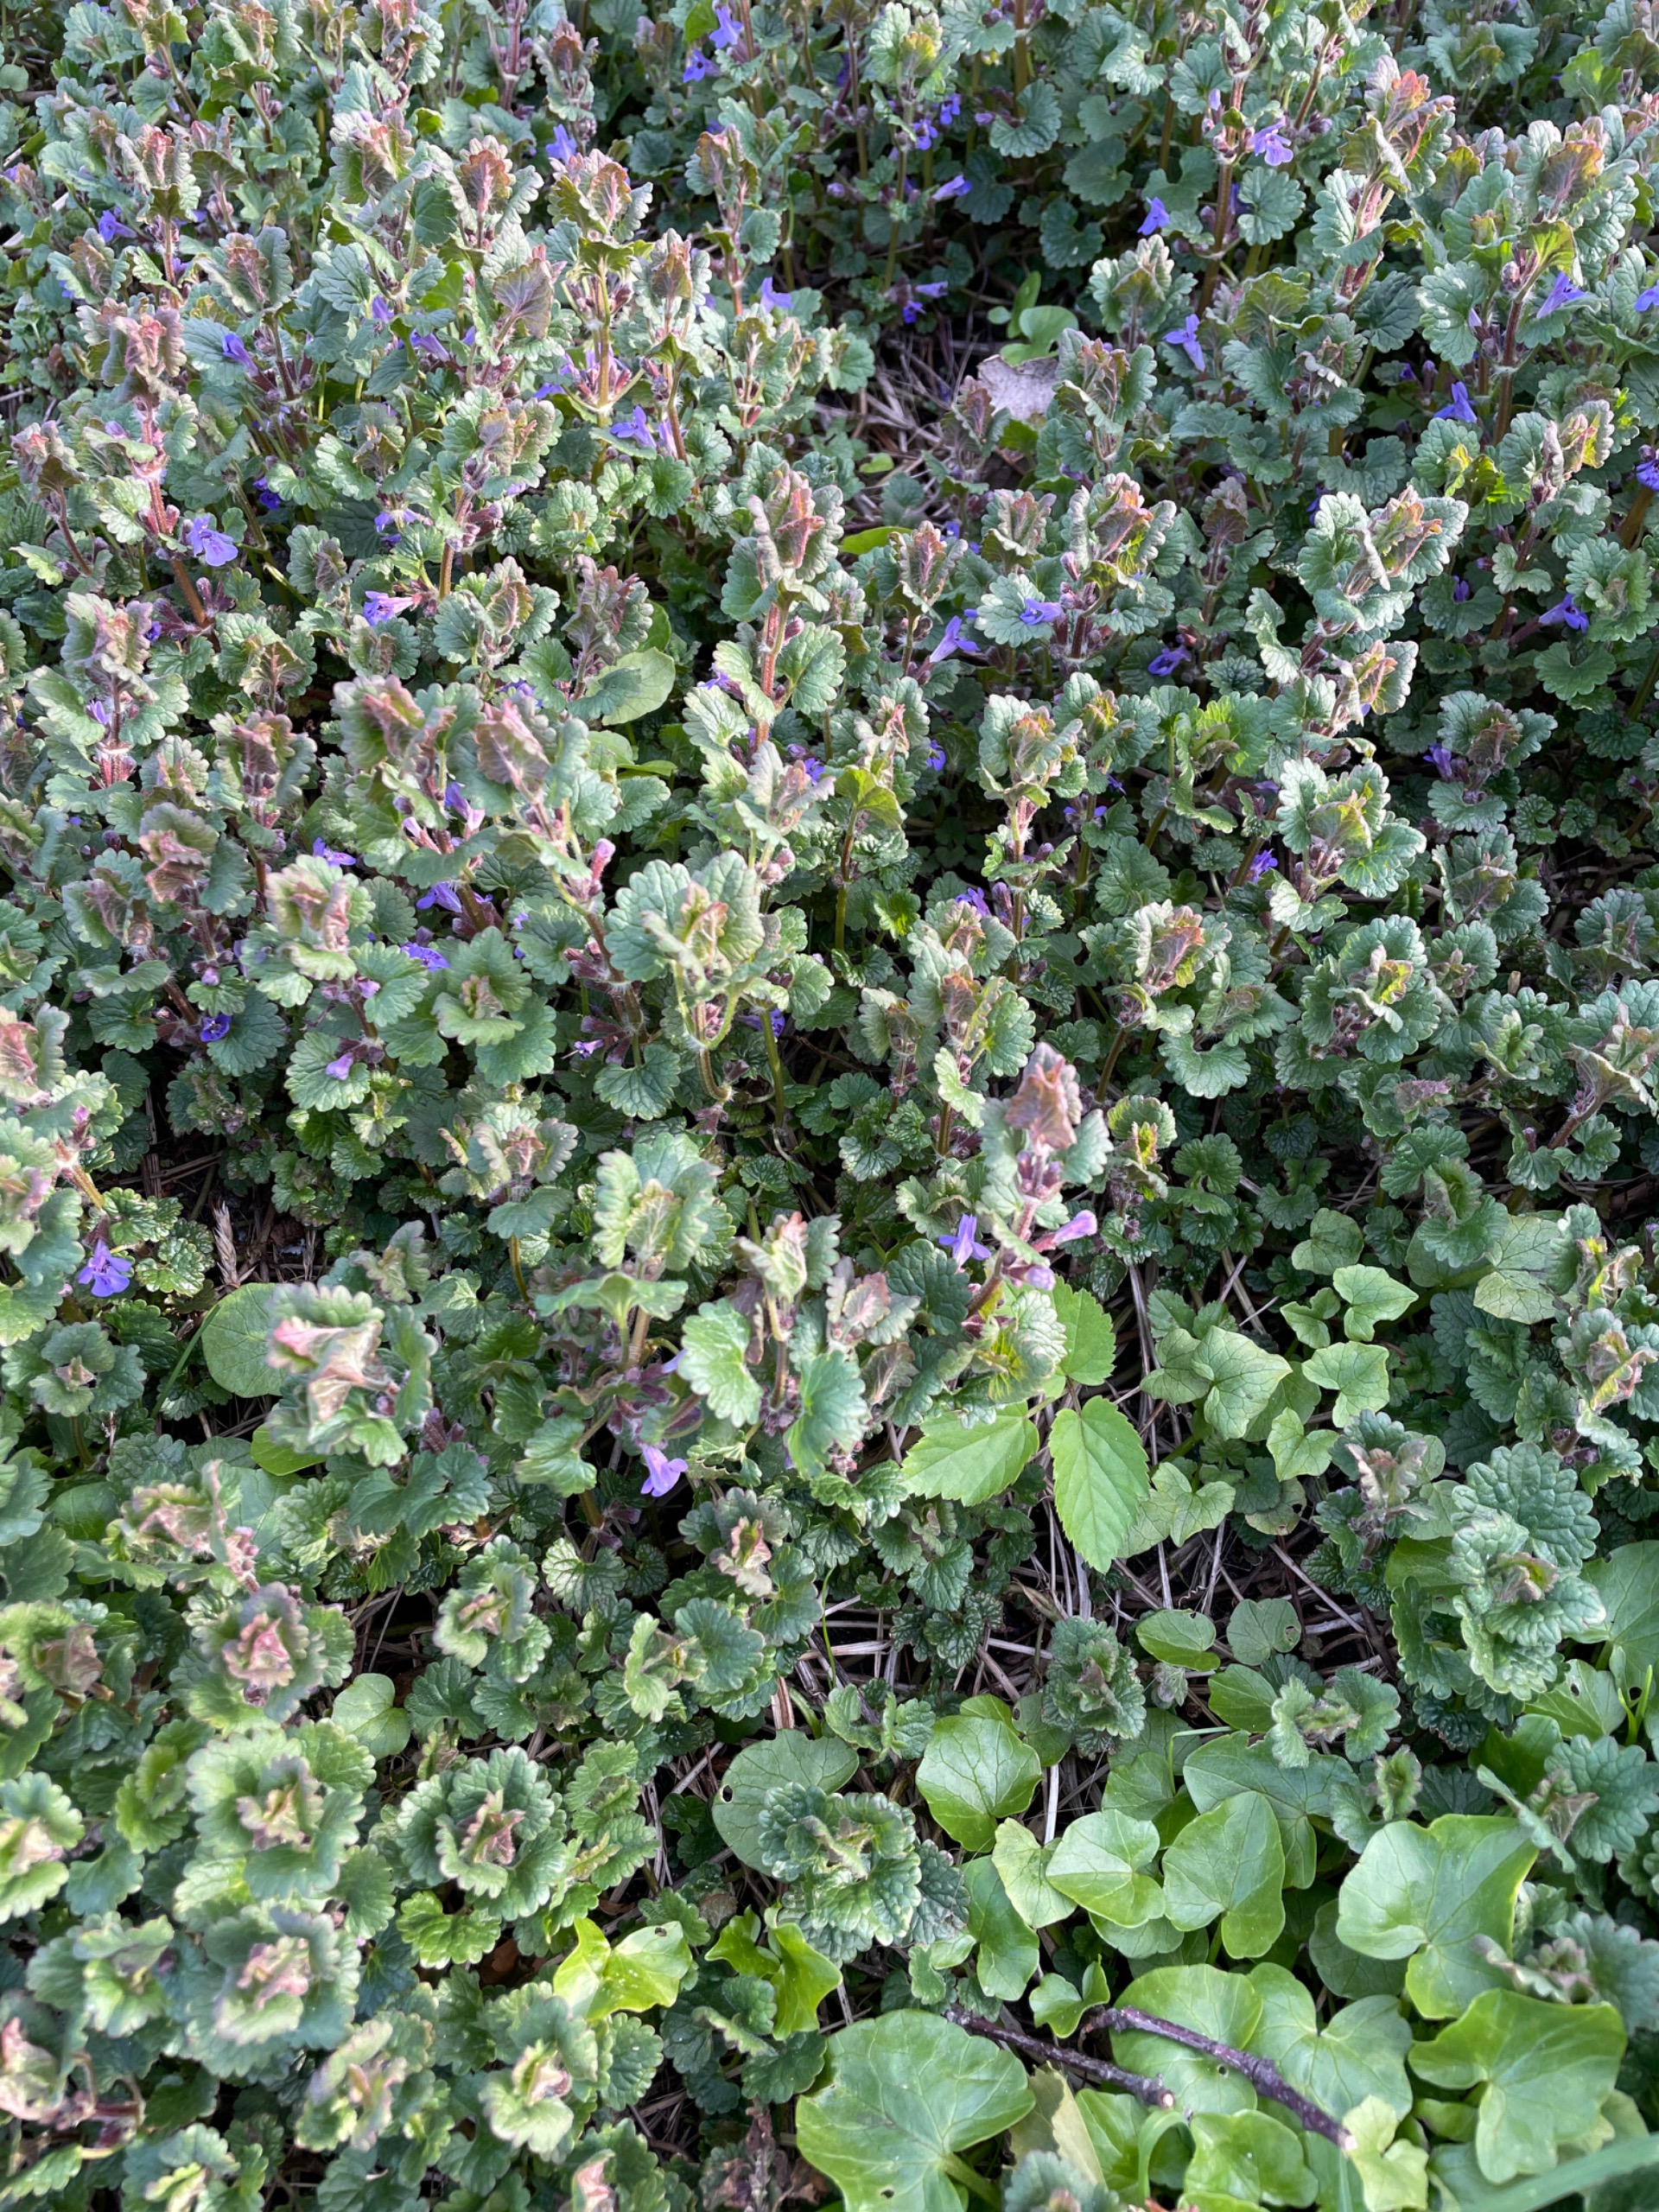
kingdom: Plantae
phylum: Tracheophyta
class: Magnoliopsida
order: Lamiales
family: Lamiaceae
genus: Glechoma
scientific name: Glechoma hederacea
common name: Korsknap
